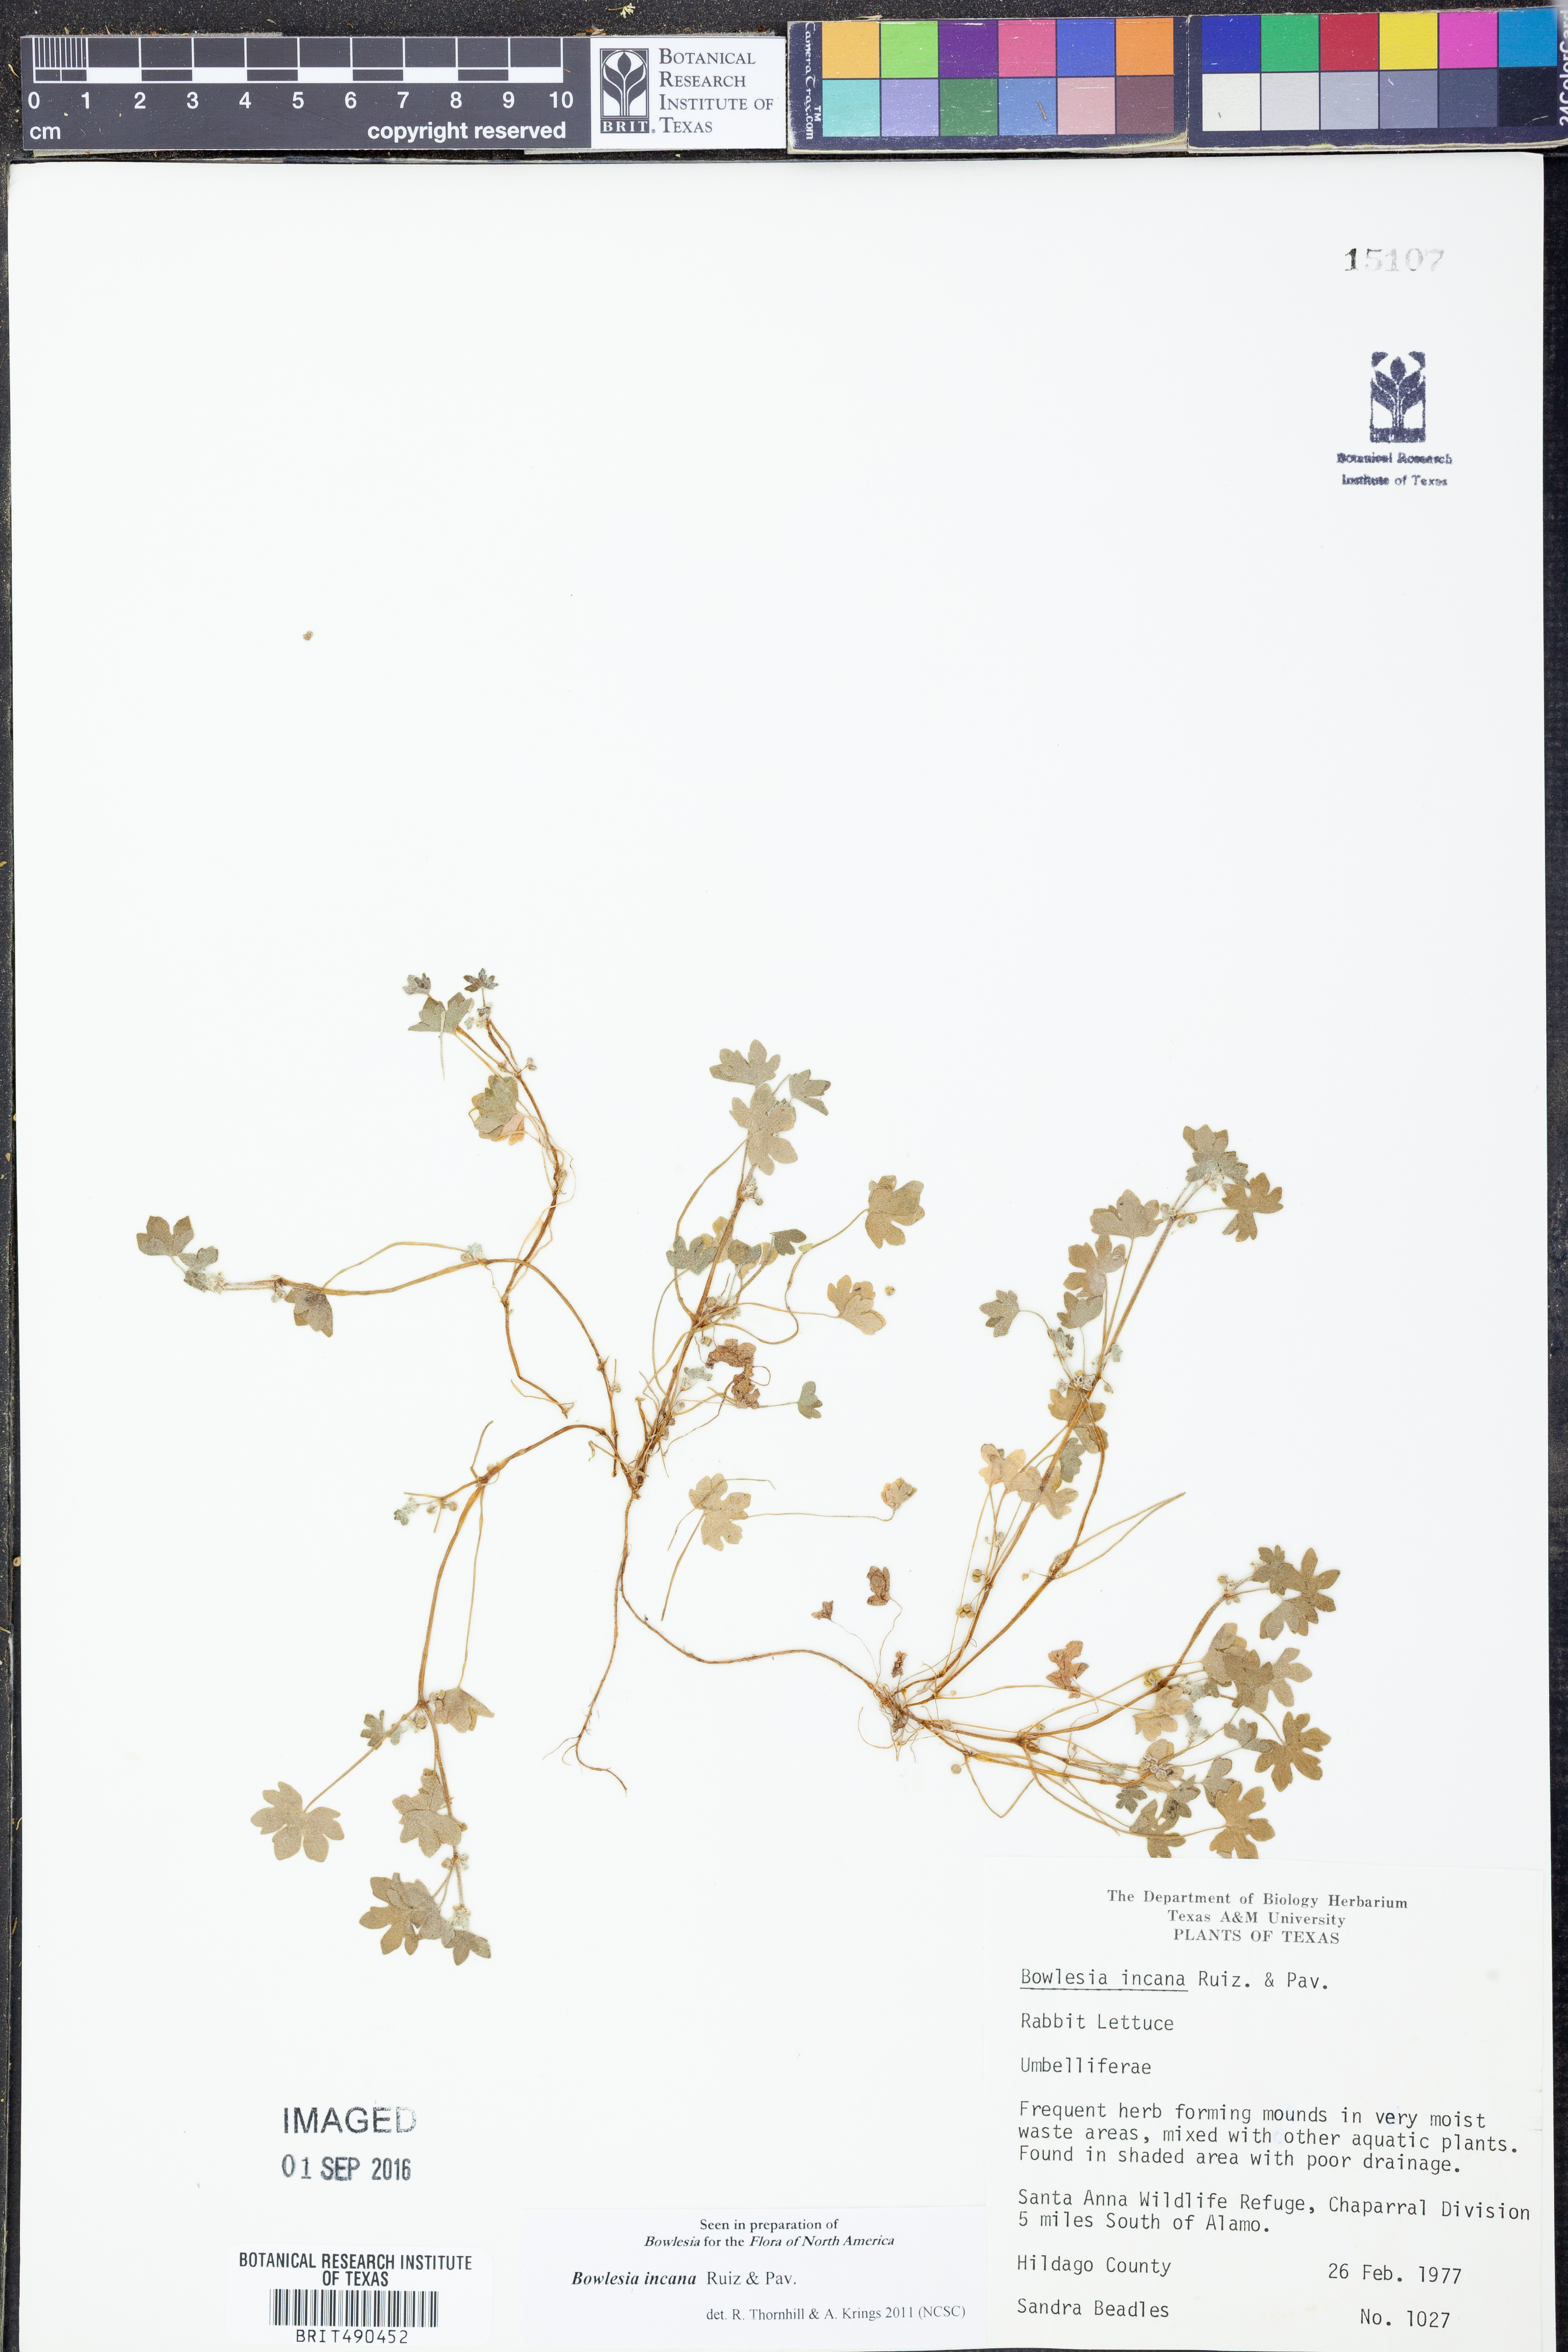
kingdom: Plantae
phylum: Tracheophyta
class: Magnoliopsida
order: Apiales
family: Apiaceae
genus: Bowlesia
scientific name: Bowlesia incana
